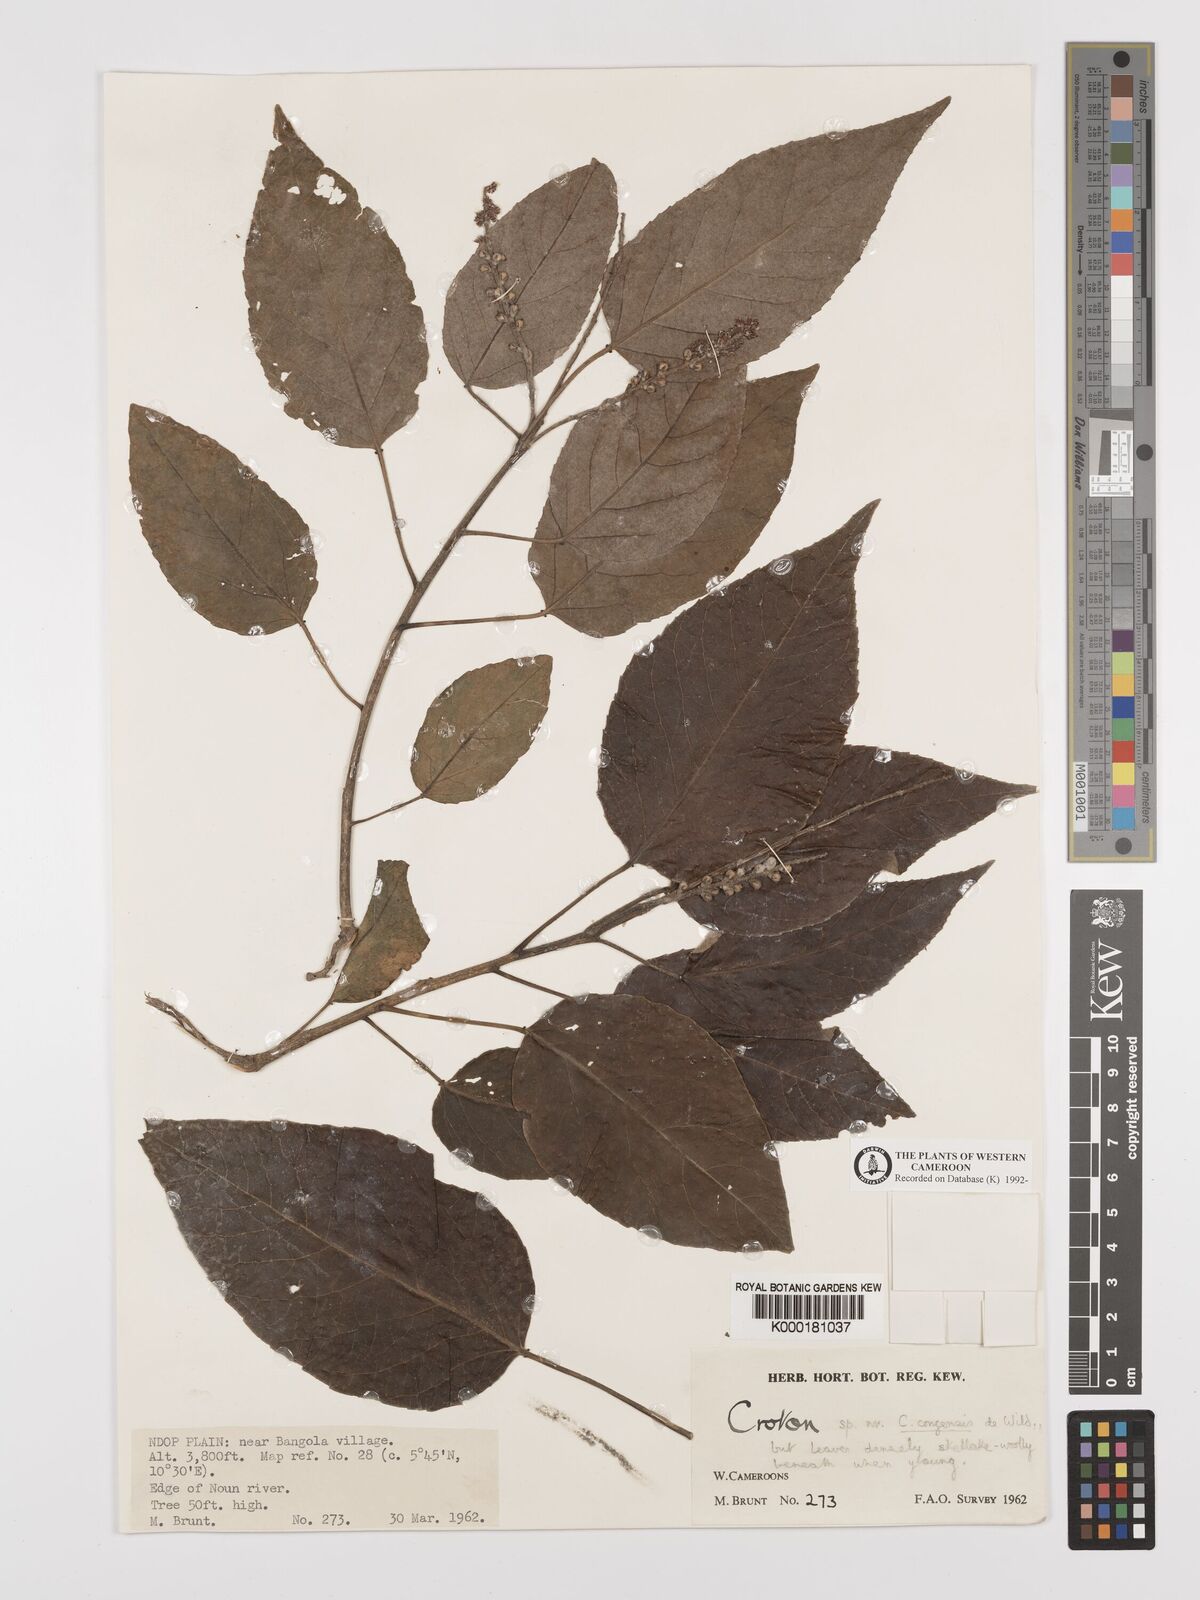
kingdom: Plantae
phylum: Tracheophyta
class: Magnoliopsida
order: Malpighiales
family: Euphorbiaceae
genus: Croton
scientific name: Croton
